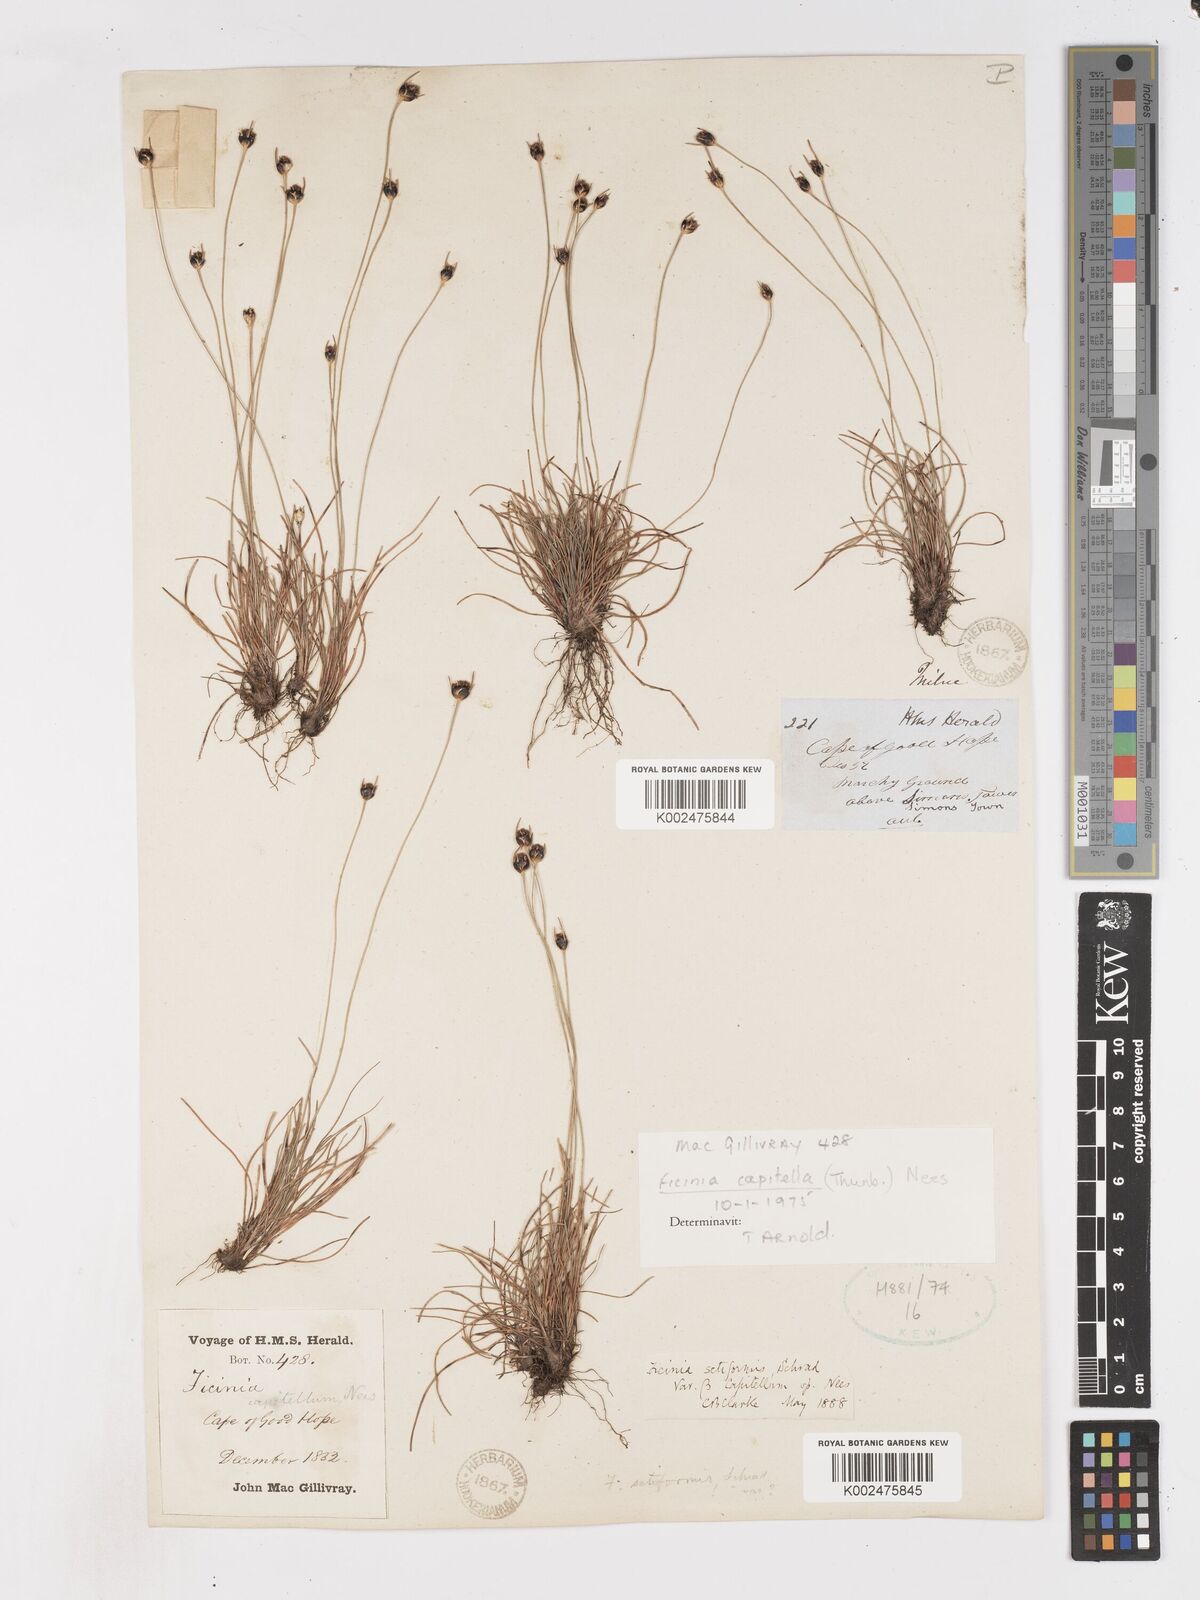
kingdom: Plantae
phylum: Tracheophyta
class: Liliopsida
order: Poales
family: Cyperaceae
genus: Ficinia
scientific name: Ficinia capitella
